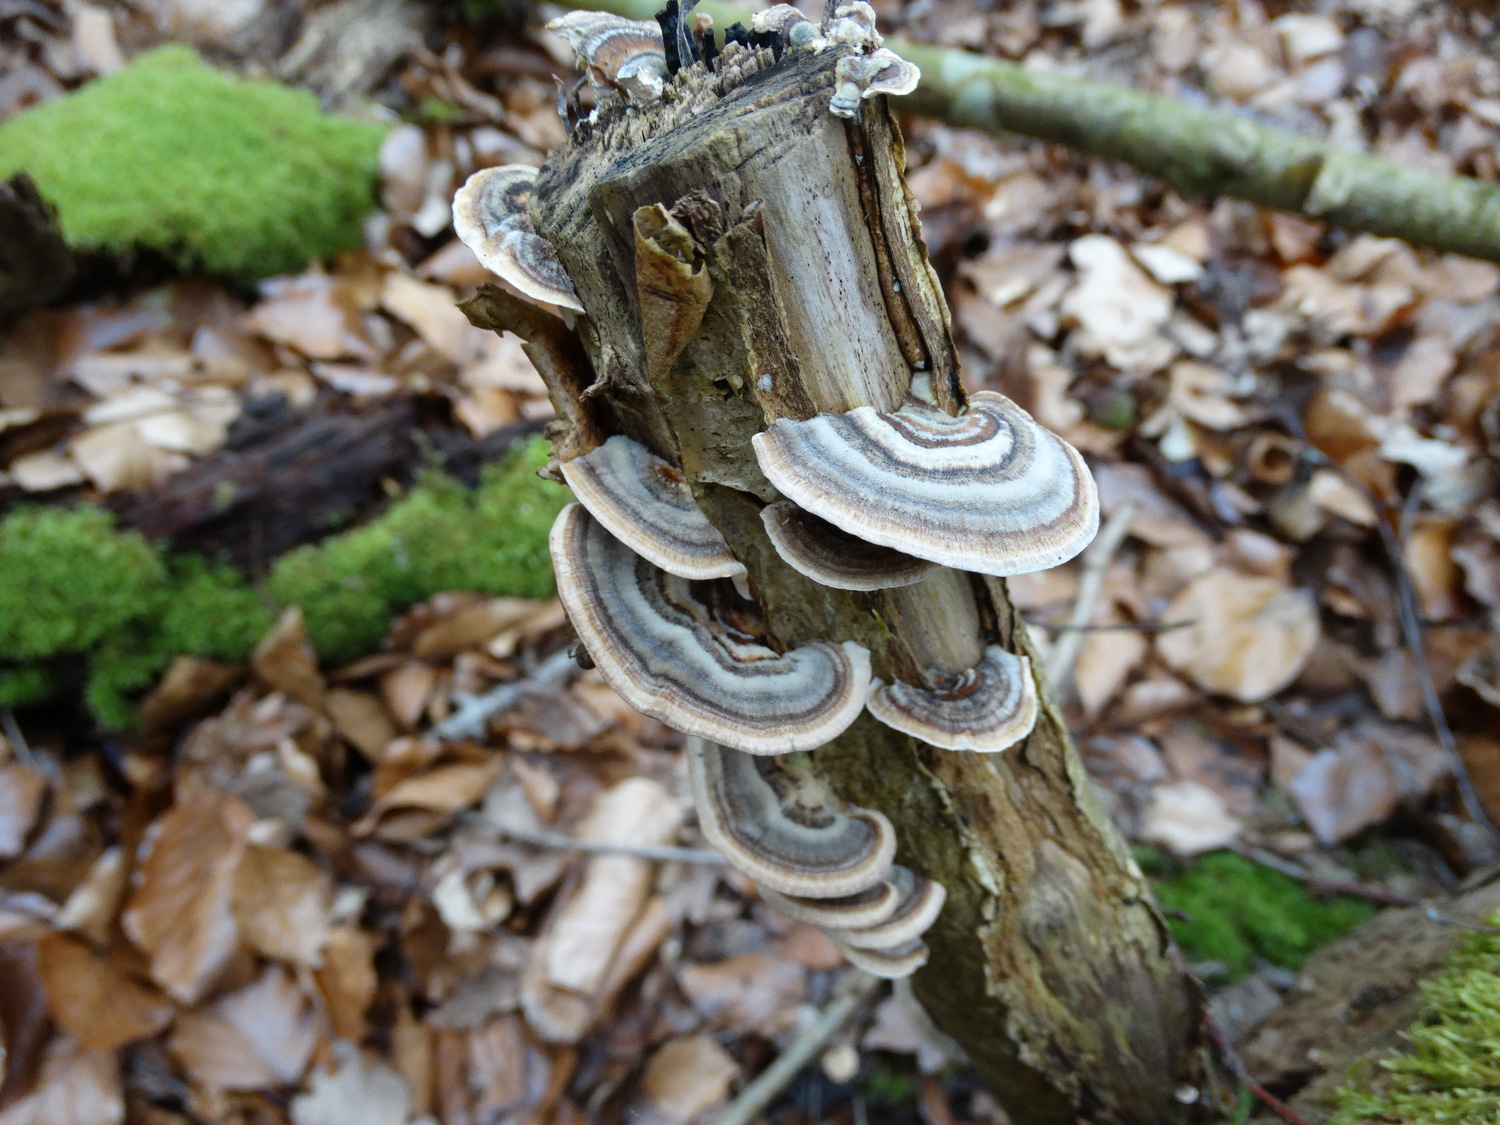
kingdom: Fungi
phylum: Basidiomycota
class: Agaricomycetes
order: Polyporales
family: Polyporaceae
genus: Trametes
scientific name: Trametes versicolor
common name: broget læderporesvamp
